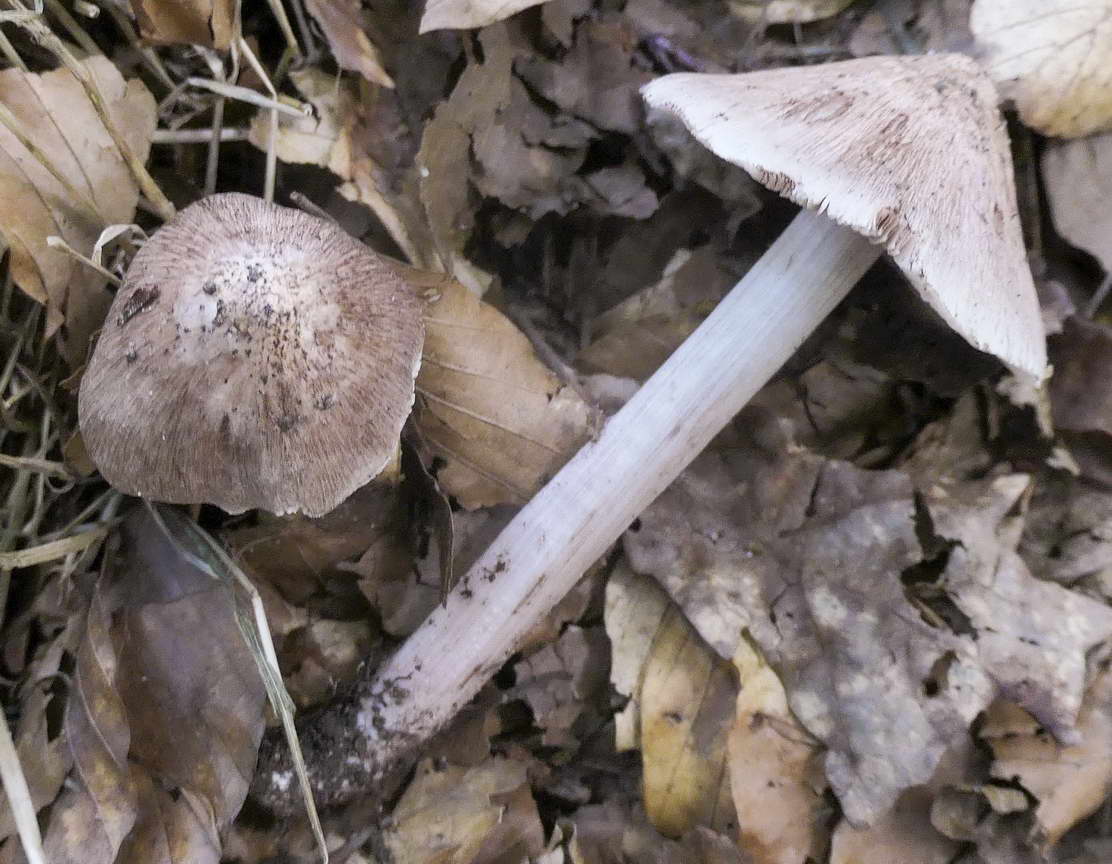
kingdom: Fungi
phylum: Basidiomycota
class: Agaricomycetes
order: Agaricales
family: Inocybaceae
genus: Inosperma
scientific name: Inosperma adaequatum
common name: vinrød trævlhat
